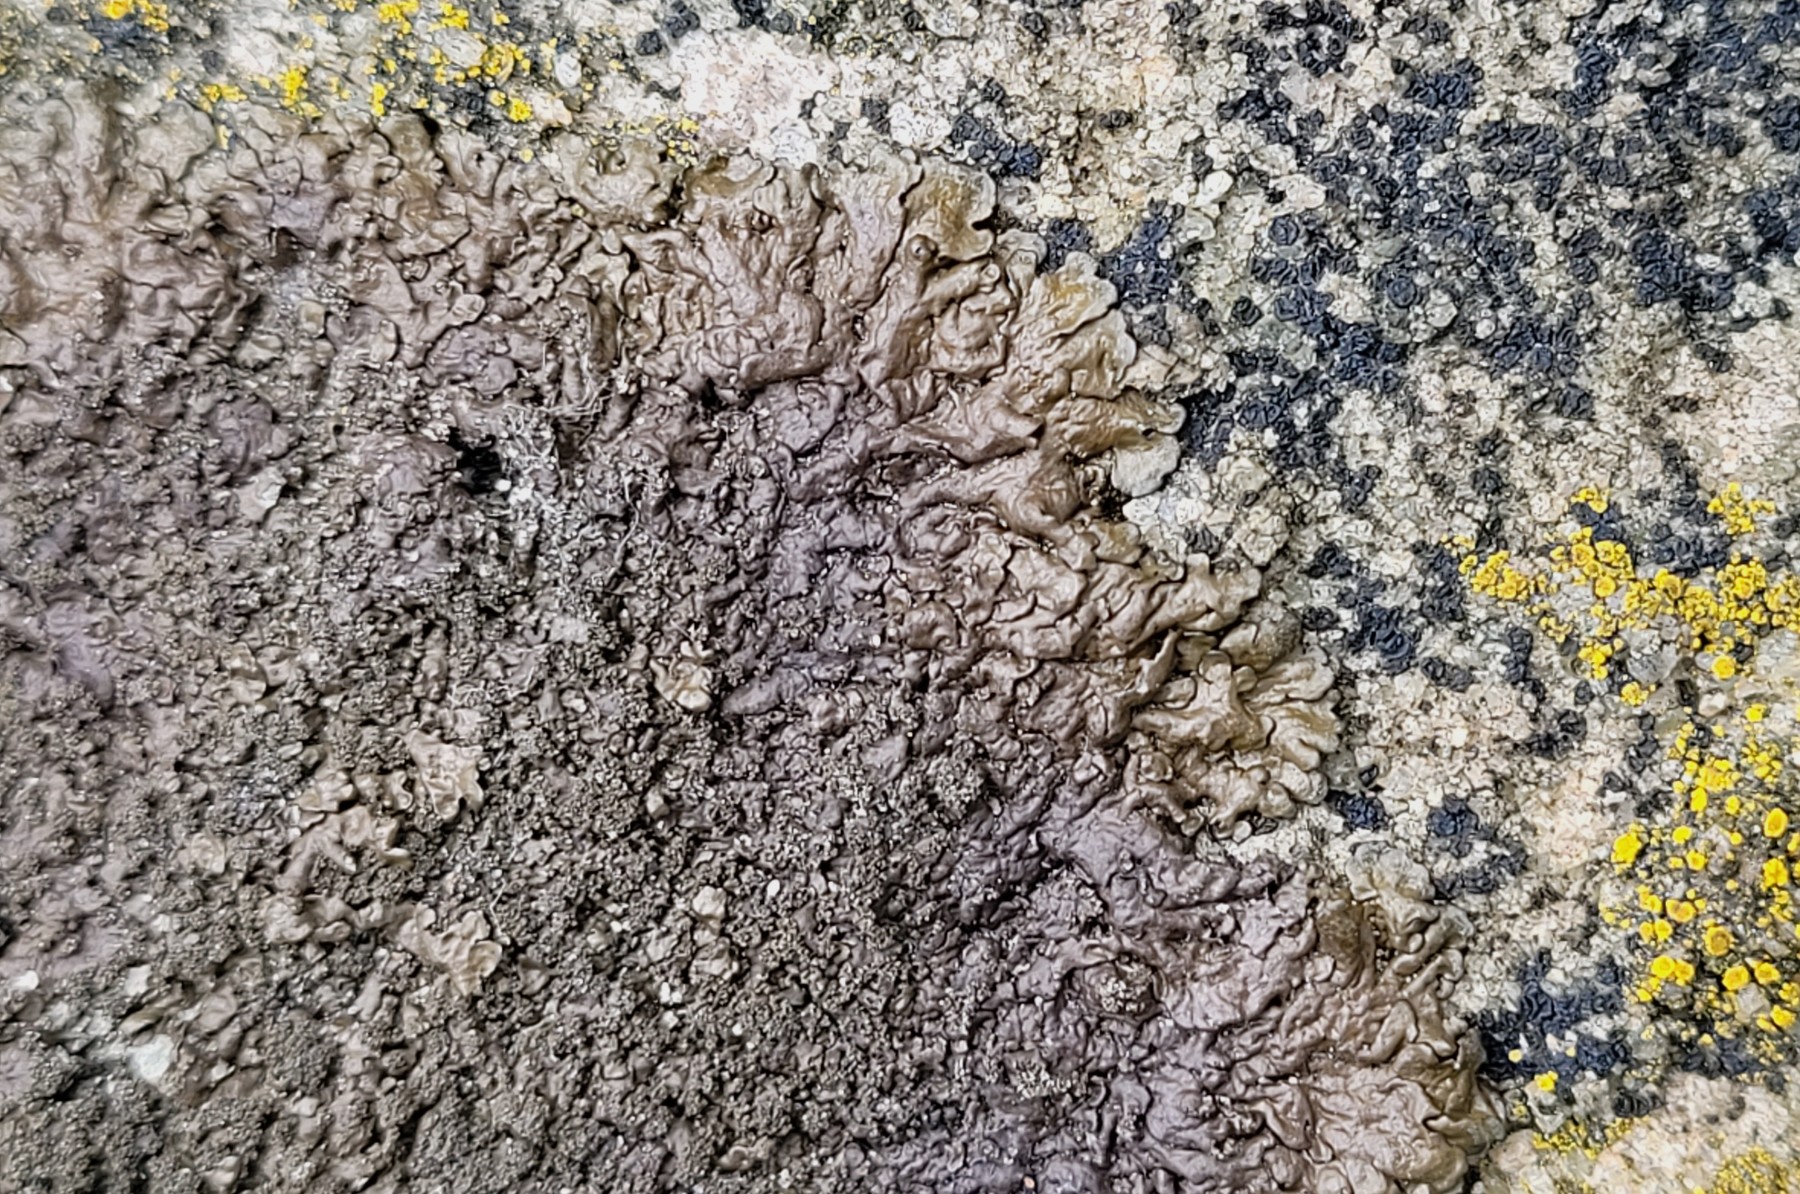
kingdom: Fungi
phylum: Ascomycota
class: Lecanoromycetes
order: Lecanorales
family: Parmeliaceae
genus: Xanthoparmelia
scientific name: Xanthoparmelia verruculifera
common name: småknoppet skållav
